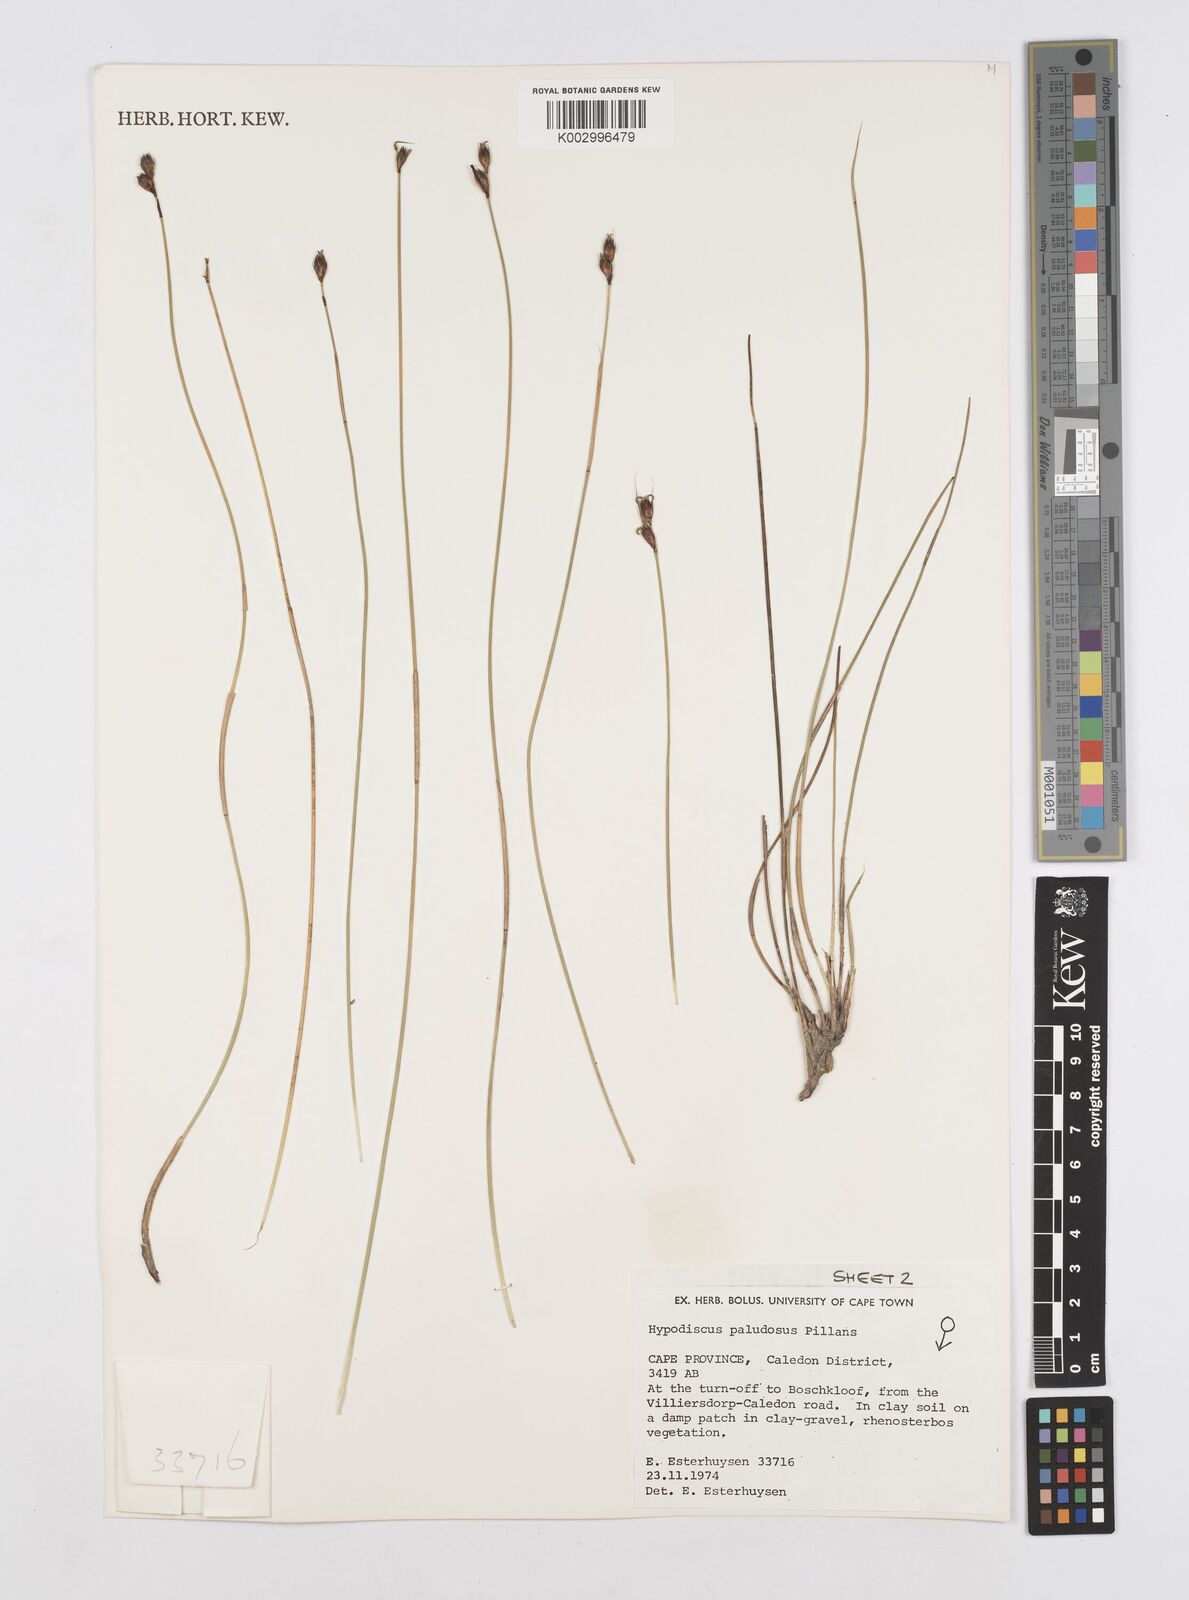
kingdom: Plantae
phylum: Tracheophyta
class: Liliopsida
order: Poales
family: Restionaceae
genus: Hypodiscus
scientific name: Hypodiscus rugosus
